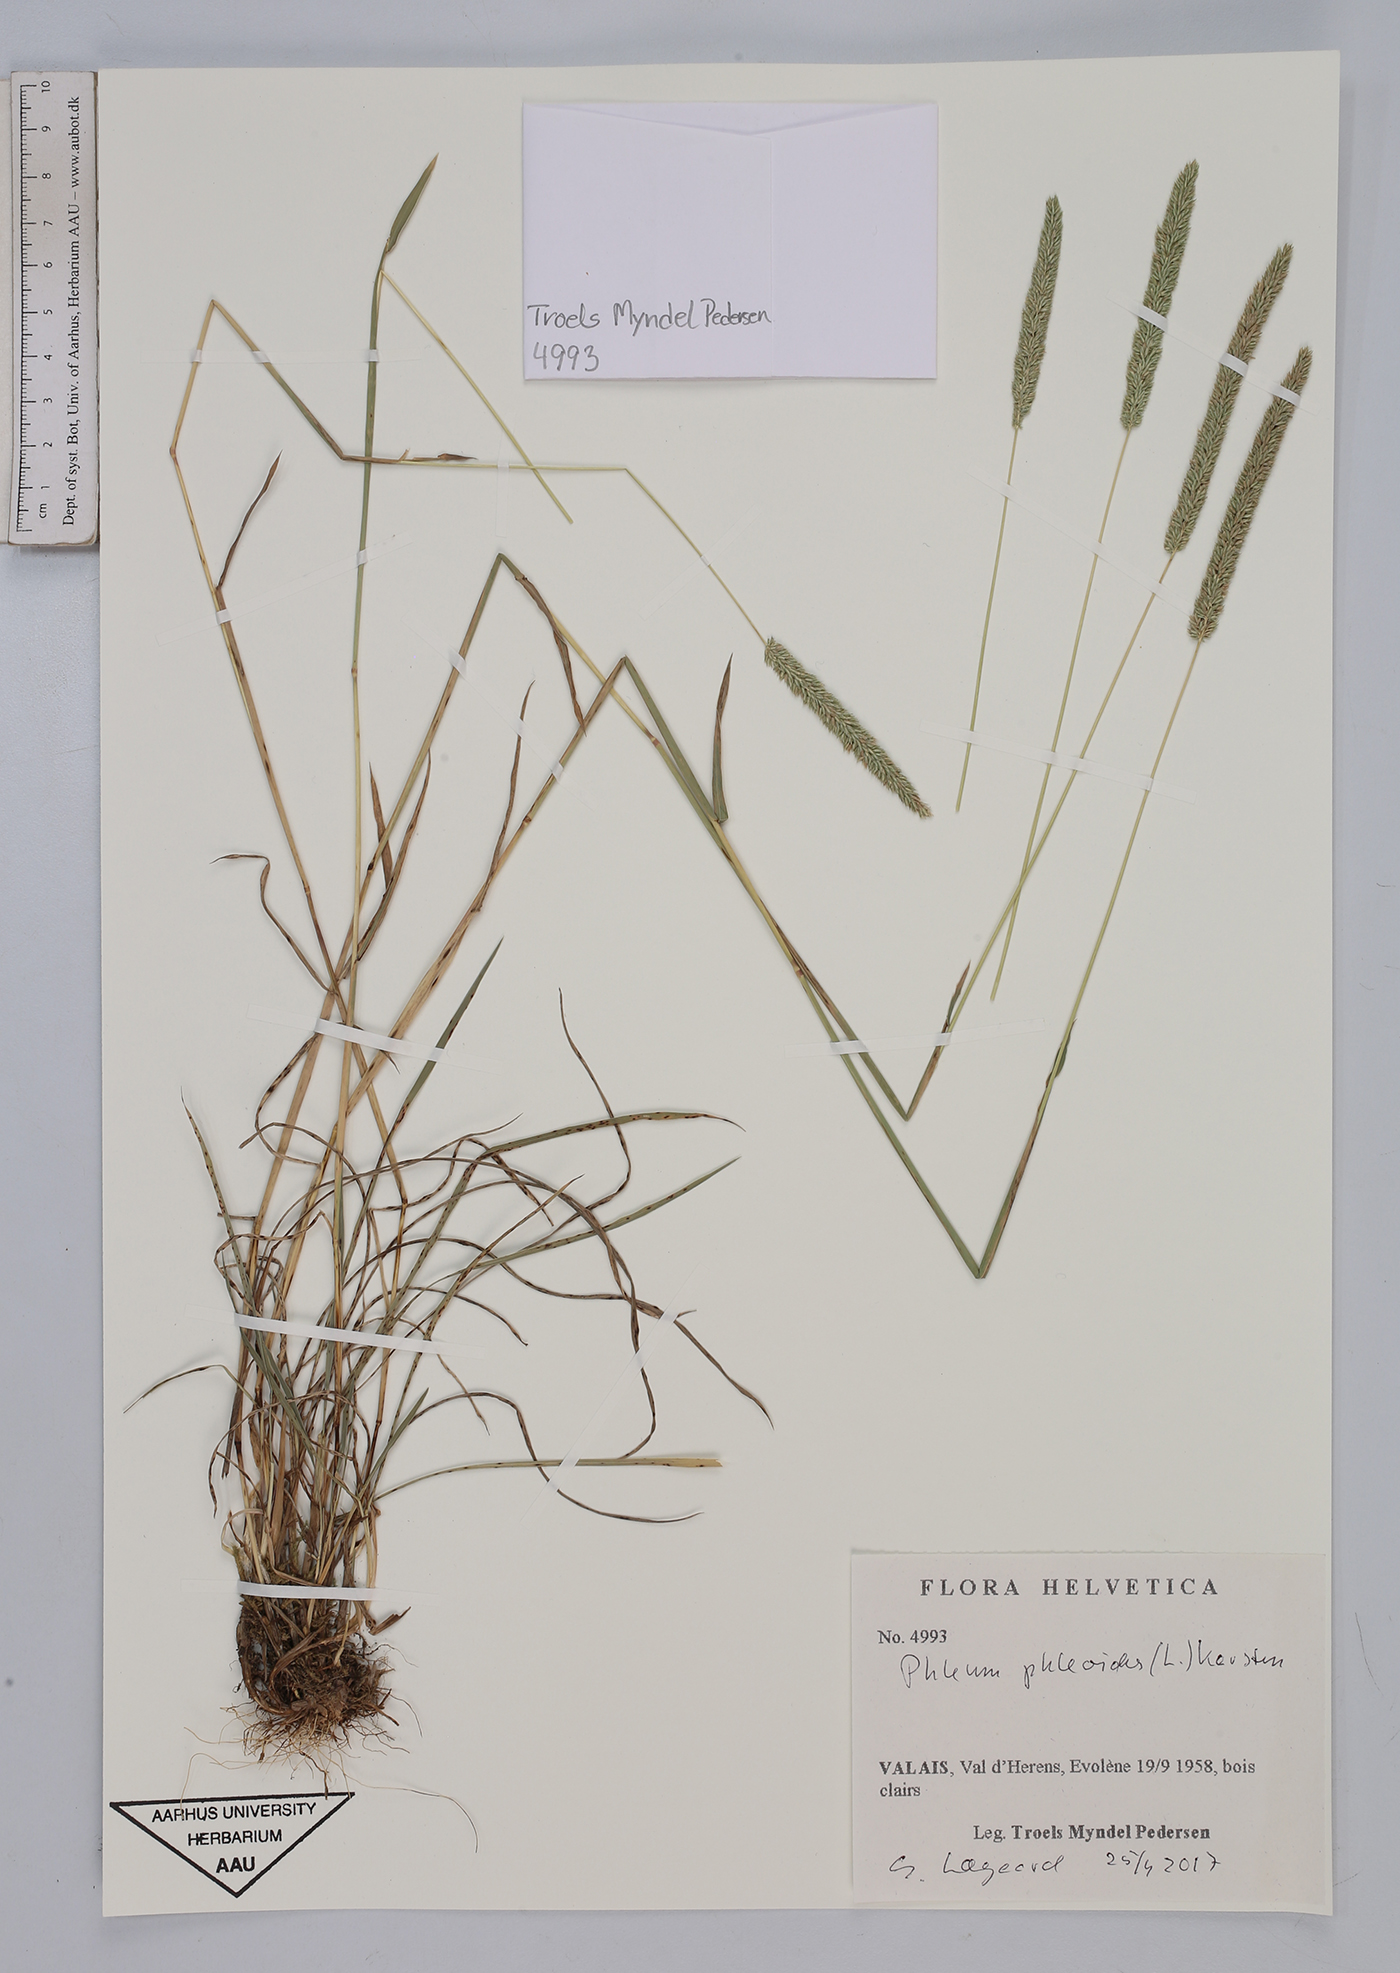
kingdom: Plantae
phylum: Tracheophyta
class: Liliopsida
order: Poales
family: Poaceae
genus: Phleum
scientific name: Phleum phleoides
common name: Purple-stem cat's-tail
